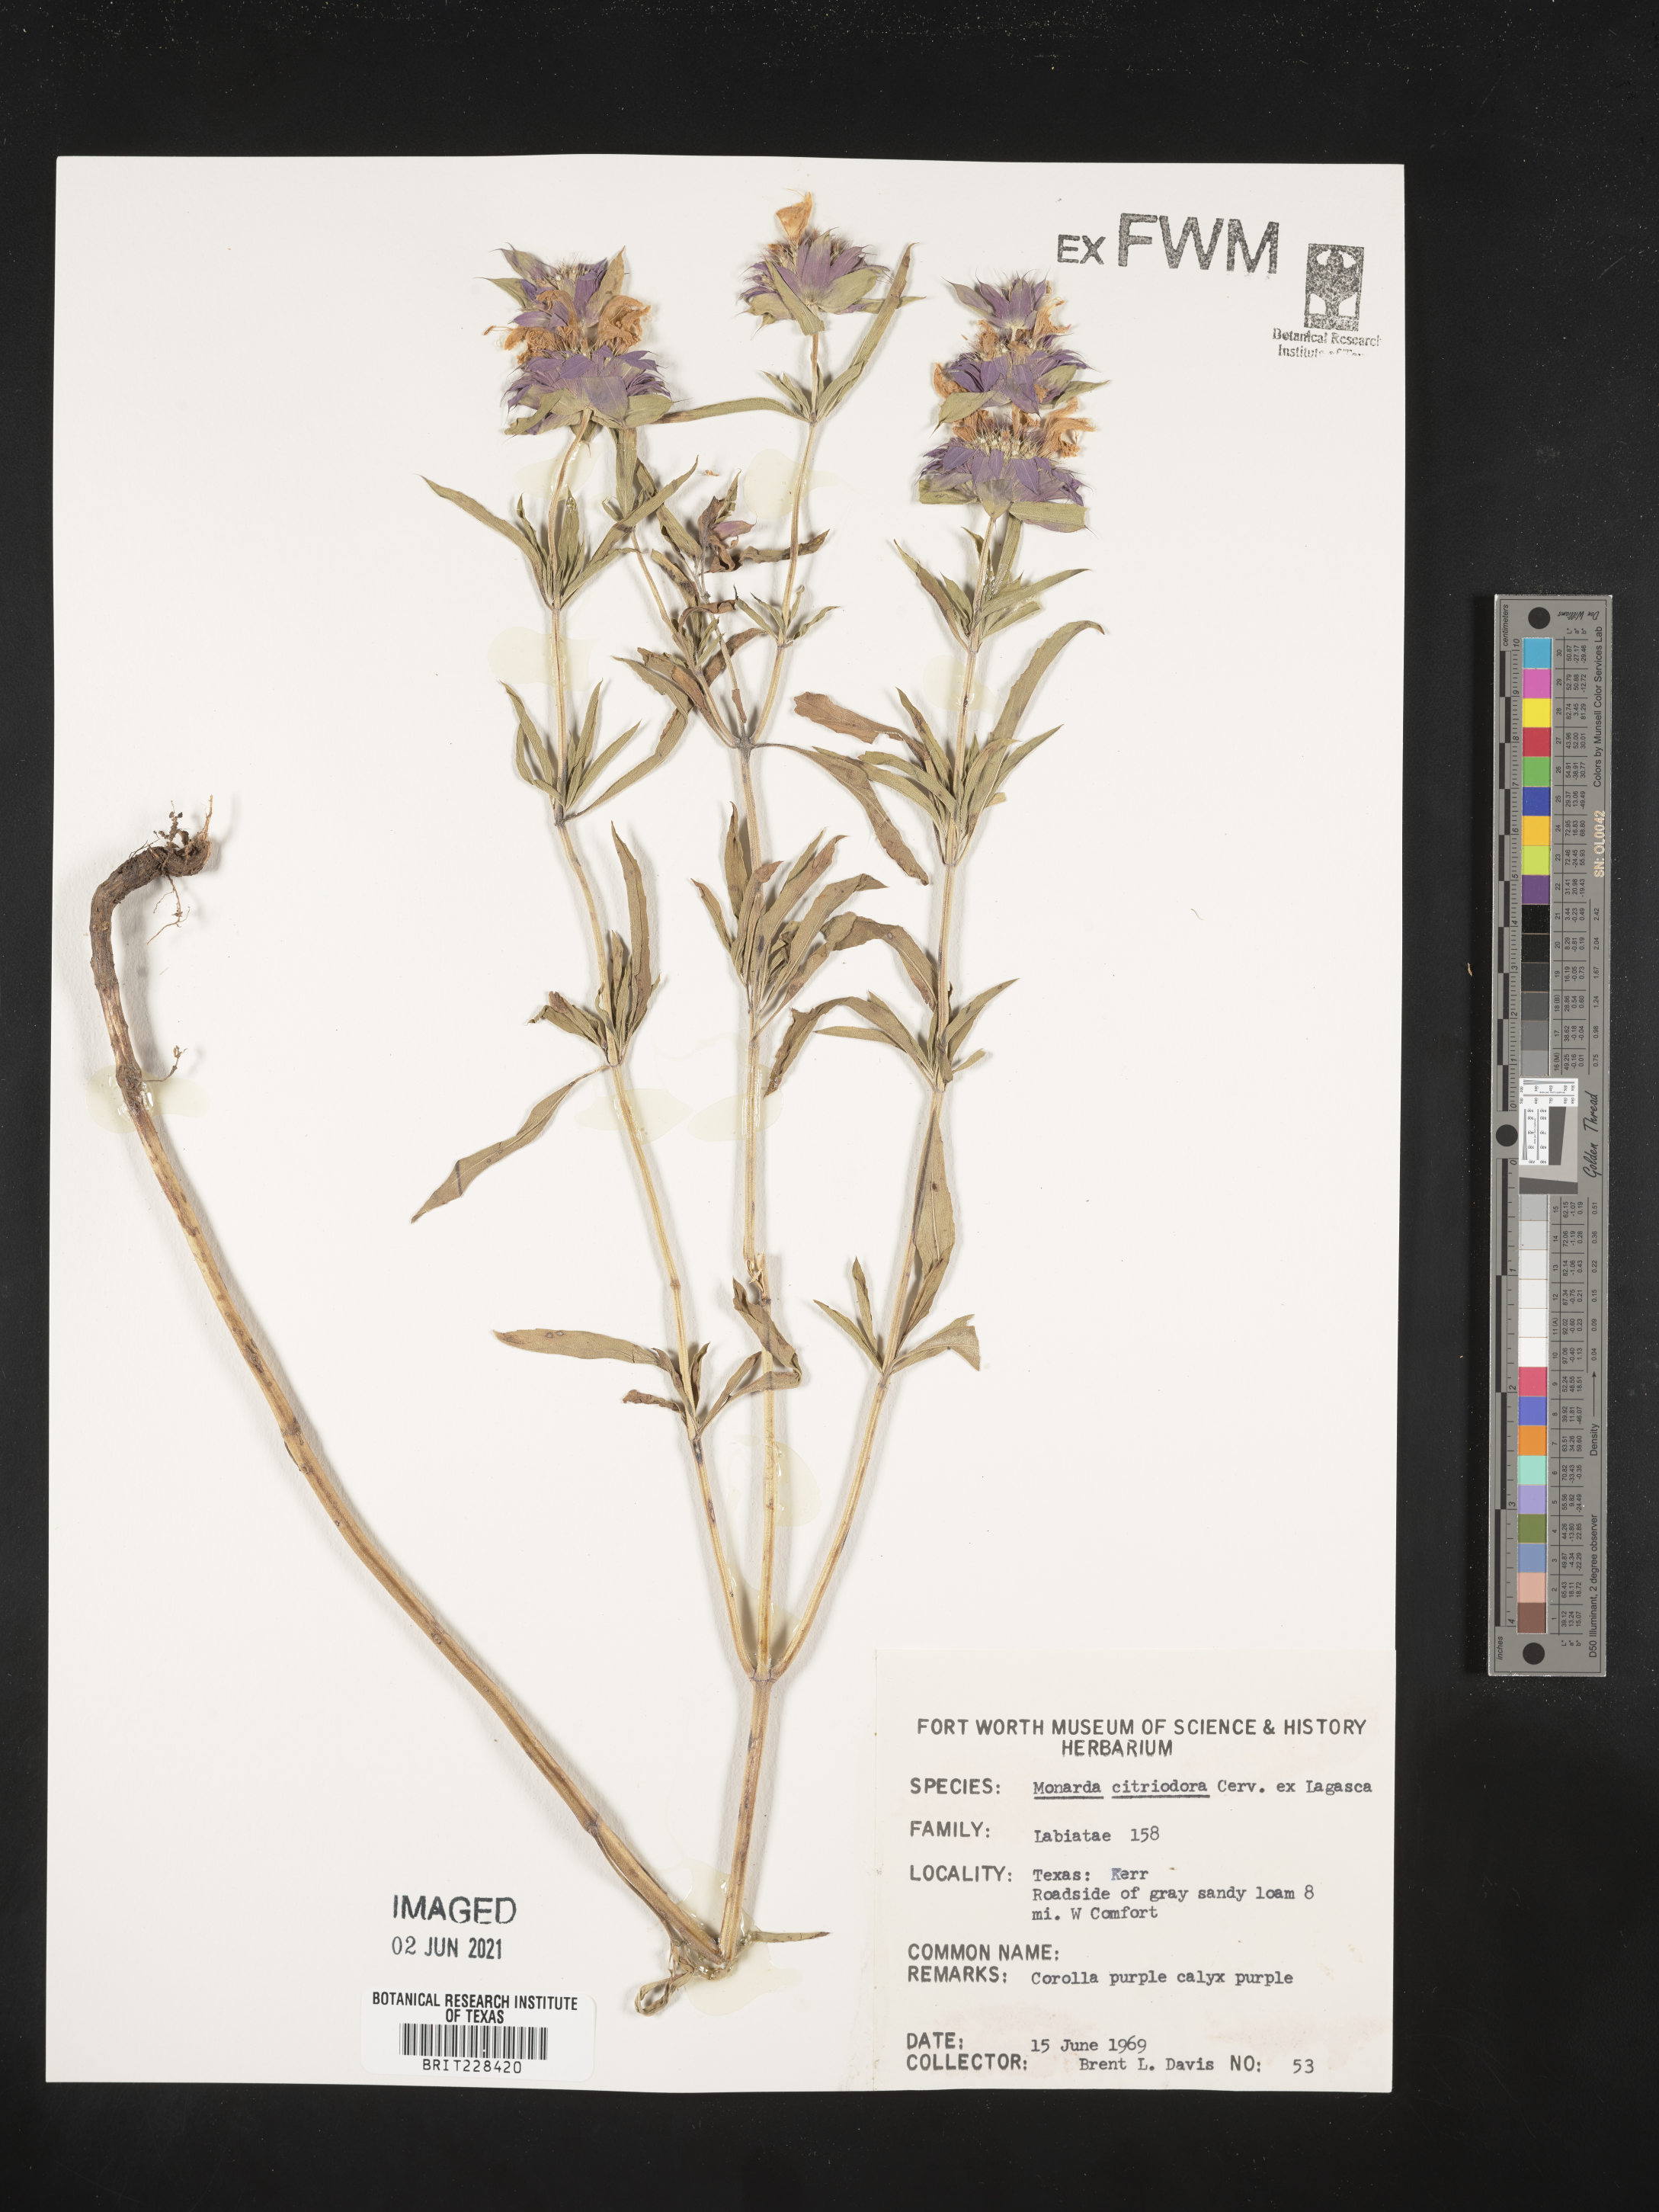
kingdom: Plantae
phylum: Tracheophyta
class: Magnoliopsida
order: Lamiales
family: Lamiaceae
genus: Monarda
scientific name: Monarda citriodora
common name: Lemon beebalm
